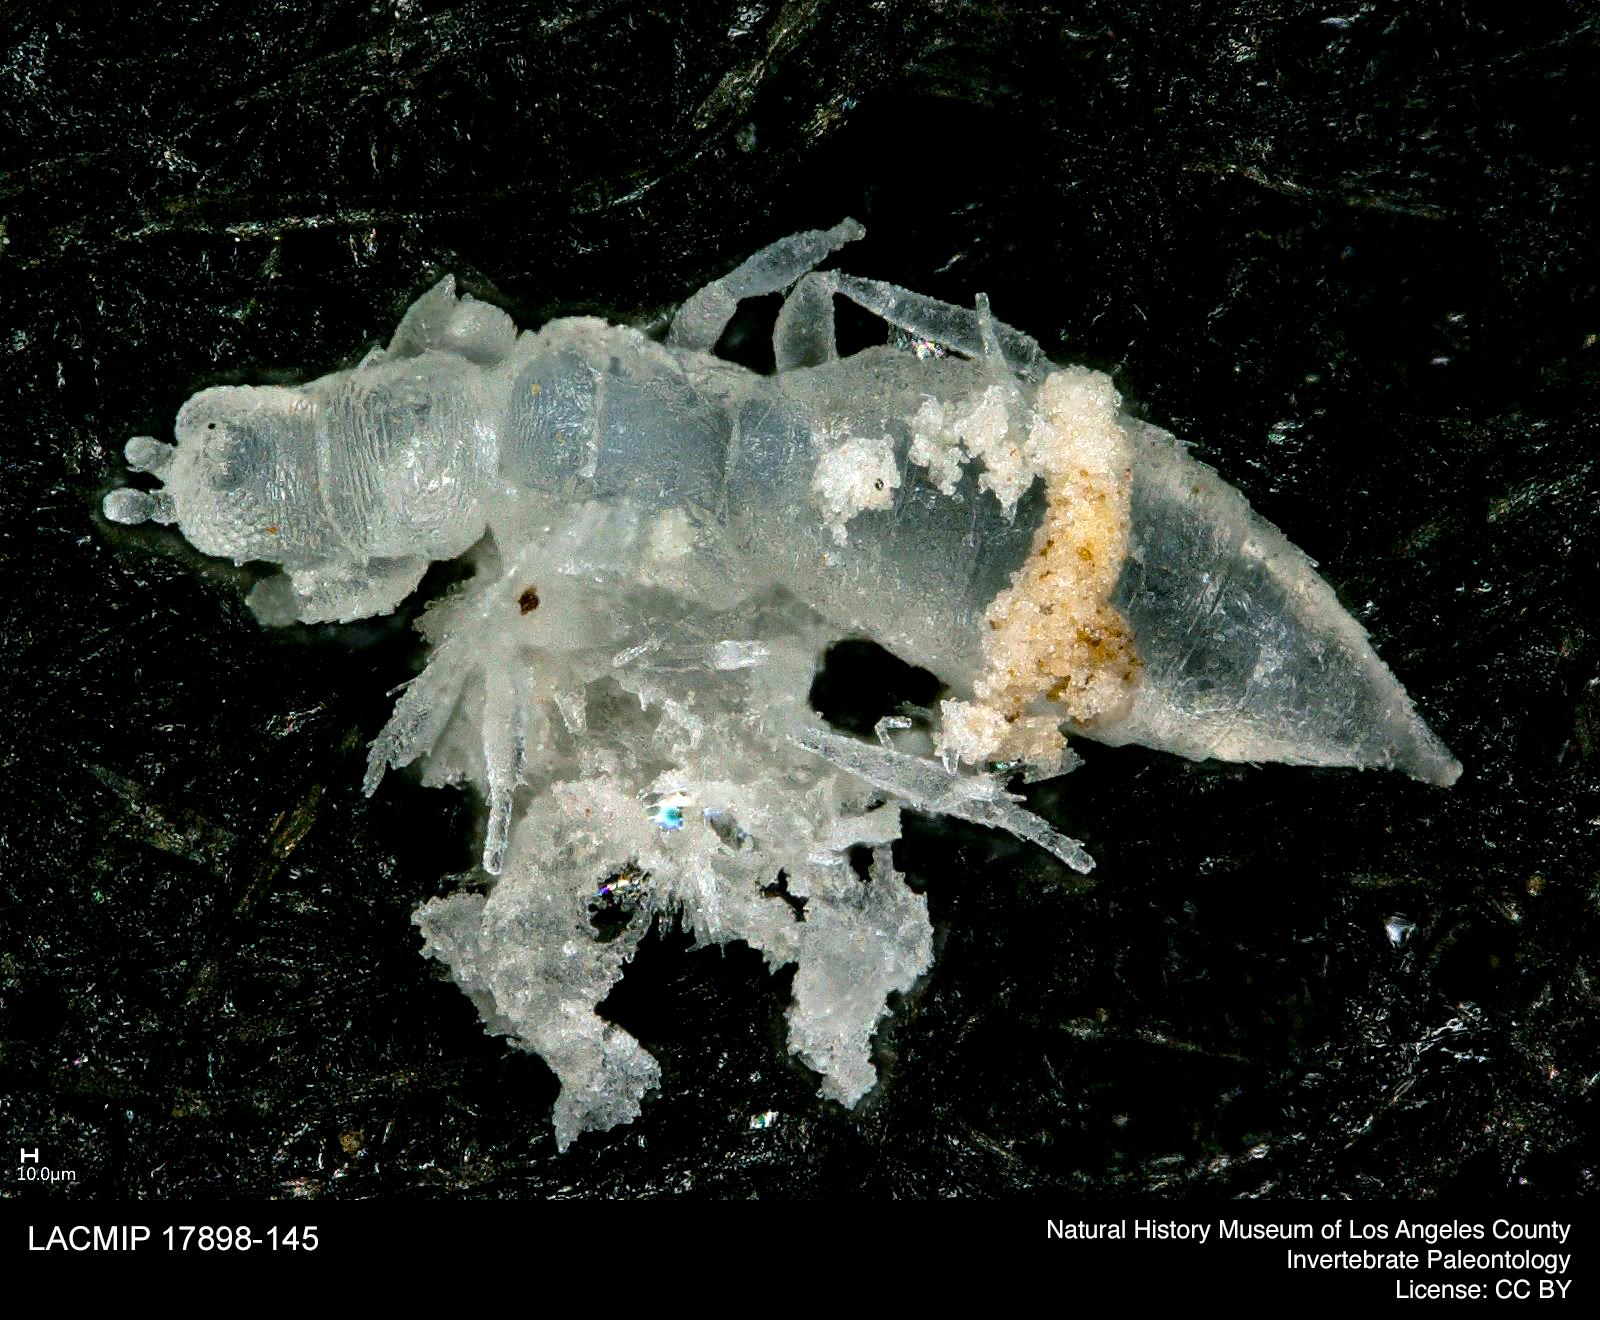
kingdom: Animalia
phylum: Arthropoda
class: Insecta
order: Thysanoptera
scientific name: Thysanoptera
